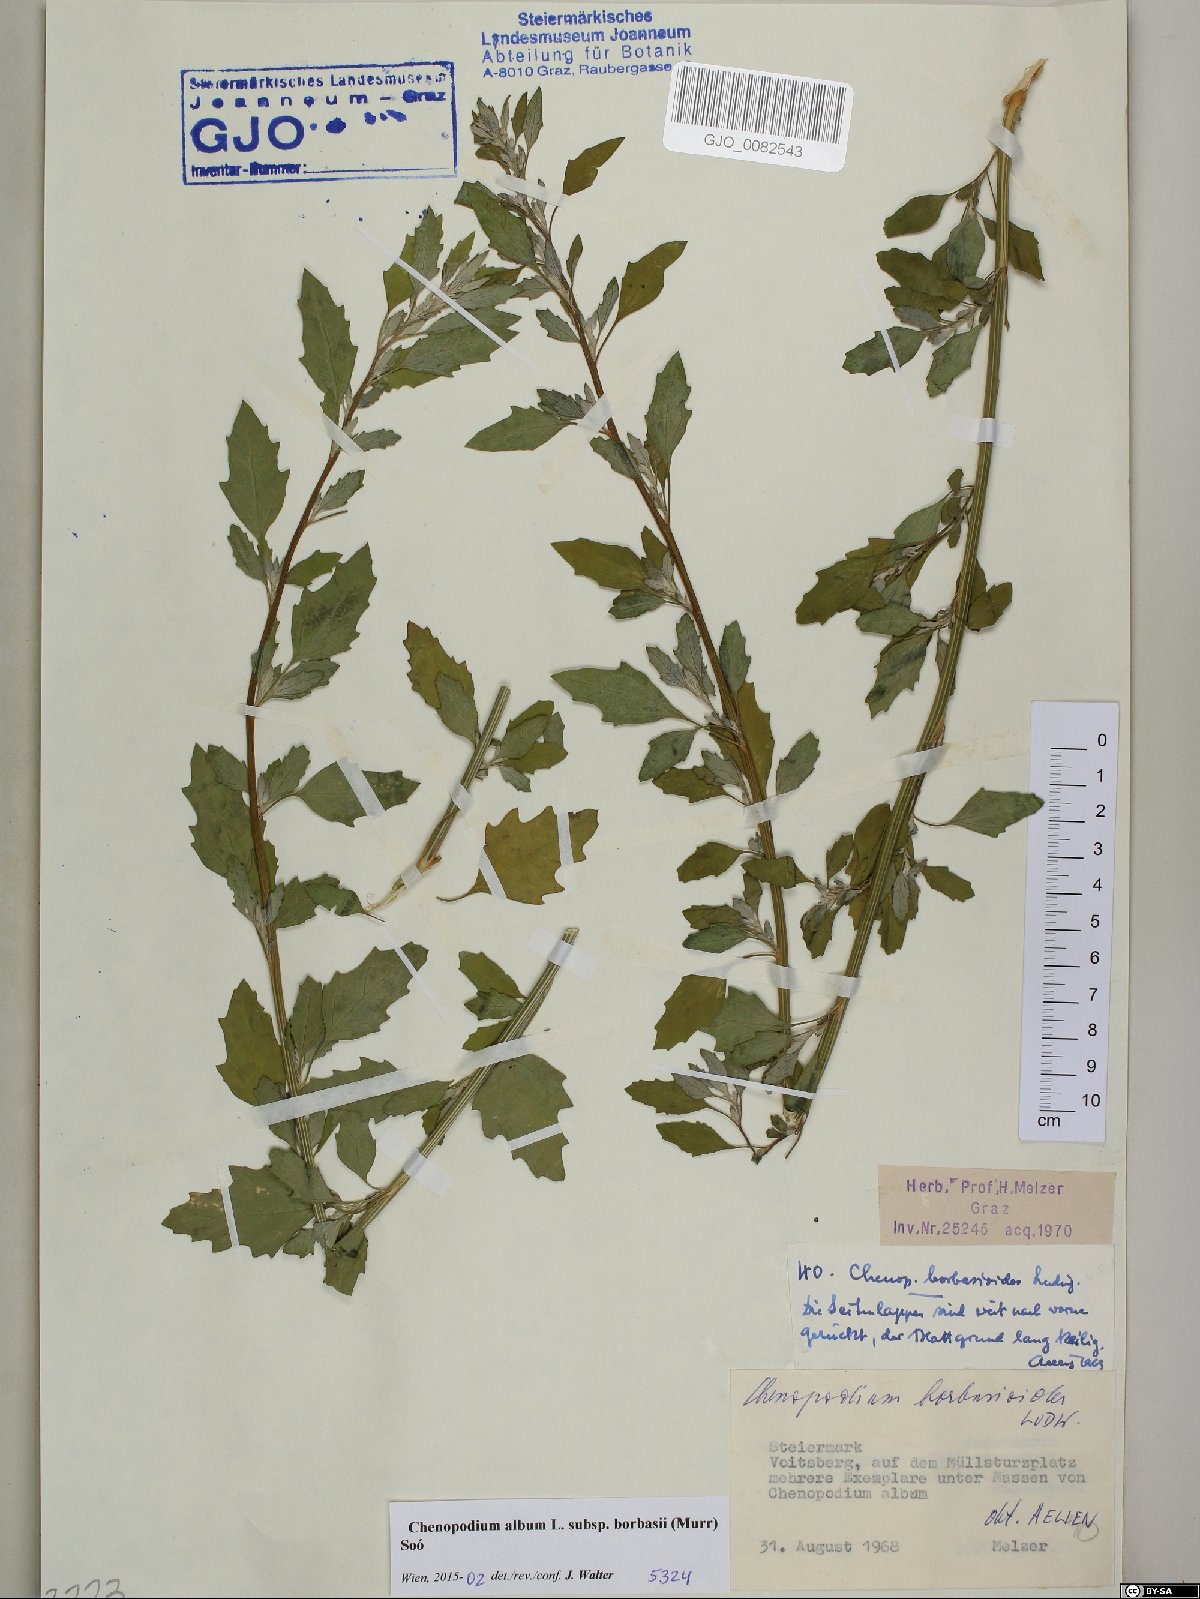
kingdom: Plantae
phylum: Tracheophyta
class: Magnoliopsida
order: Caryophyllales
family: Amaranthaceae
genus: Chenopodium
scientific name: Chenopodium borbasii
